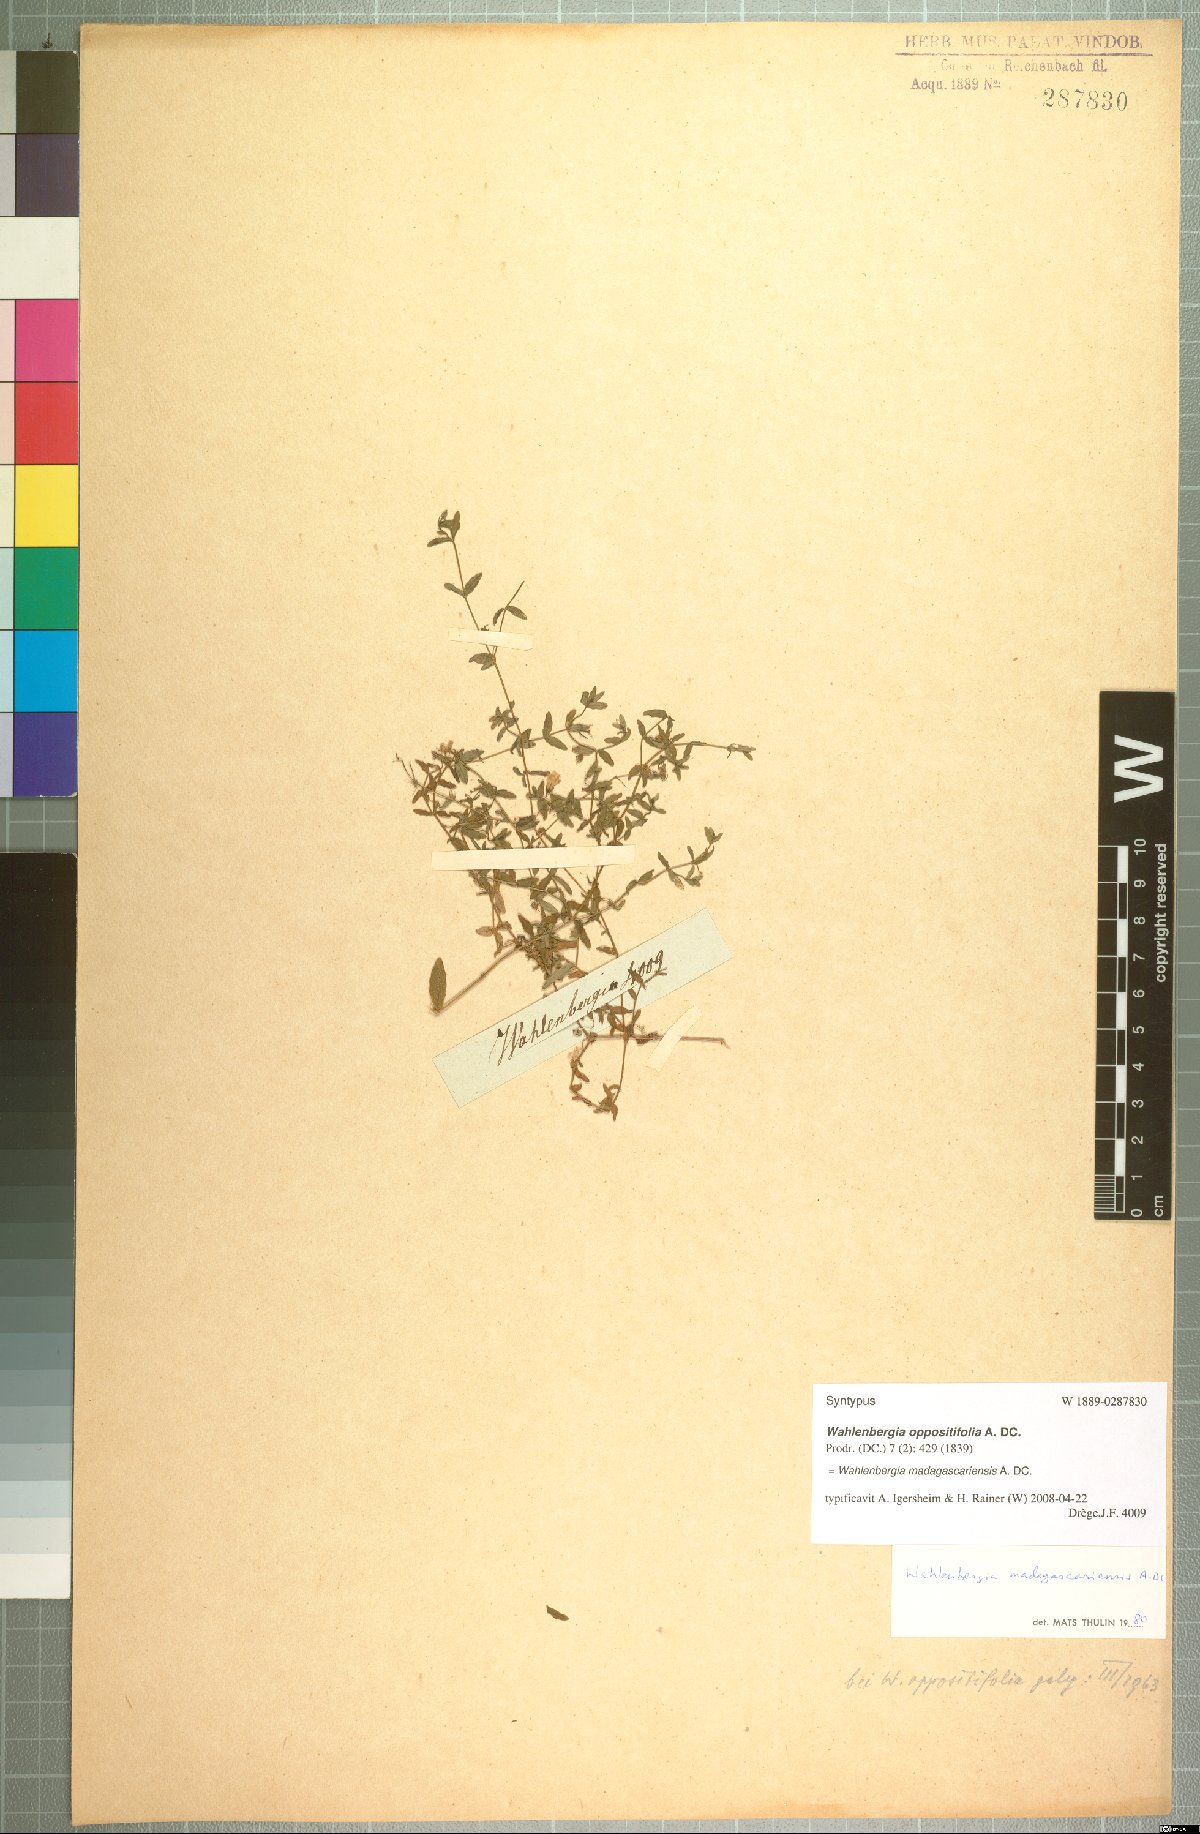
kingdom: Plantae
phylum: Tracheophyta
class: Magnoliopsida
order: Asterales
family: Campanulaceae
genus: Wahlenbergia
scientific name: Wahlenbergia madagascariensis
